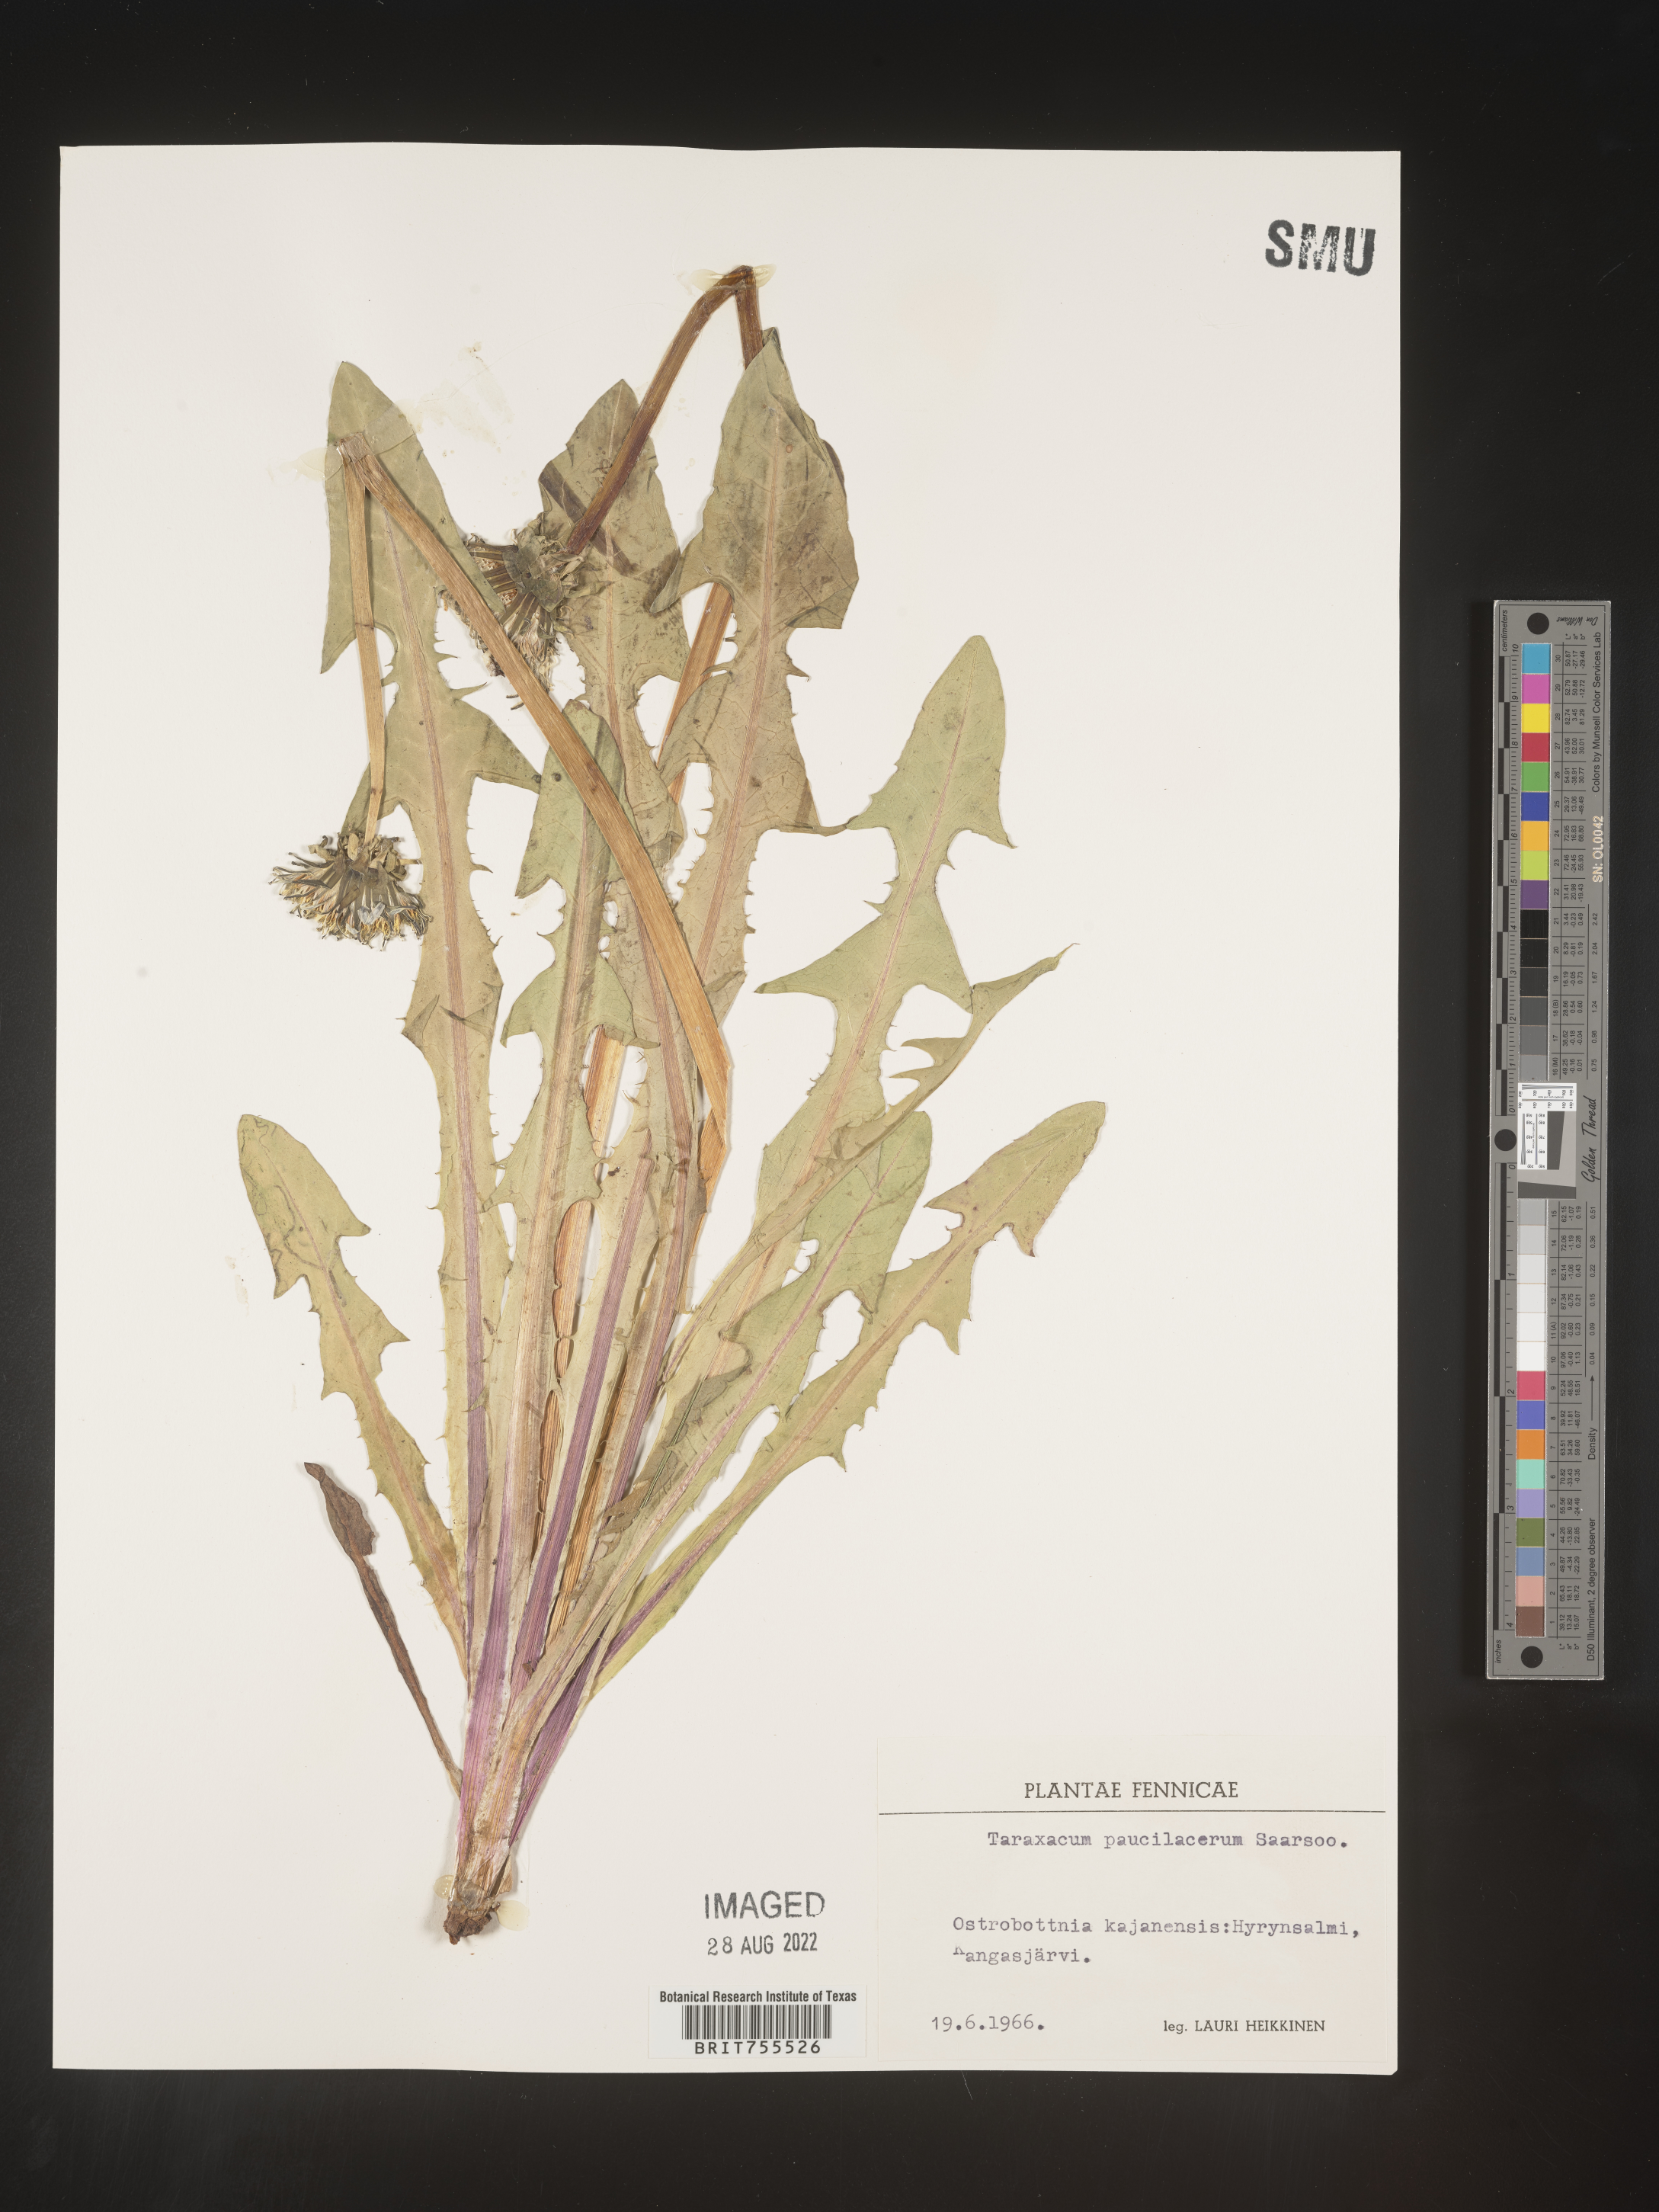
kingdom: Plantae
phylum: Tracheophyta
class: Magnoliopsida
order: Asterales
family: Asteraceae
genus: Taraxacum
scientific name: Taraxacum
